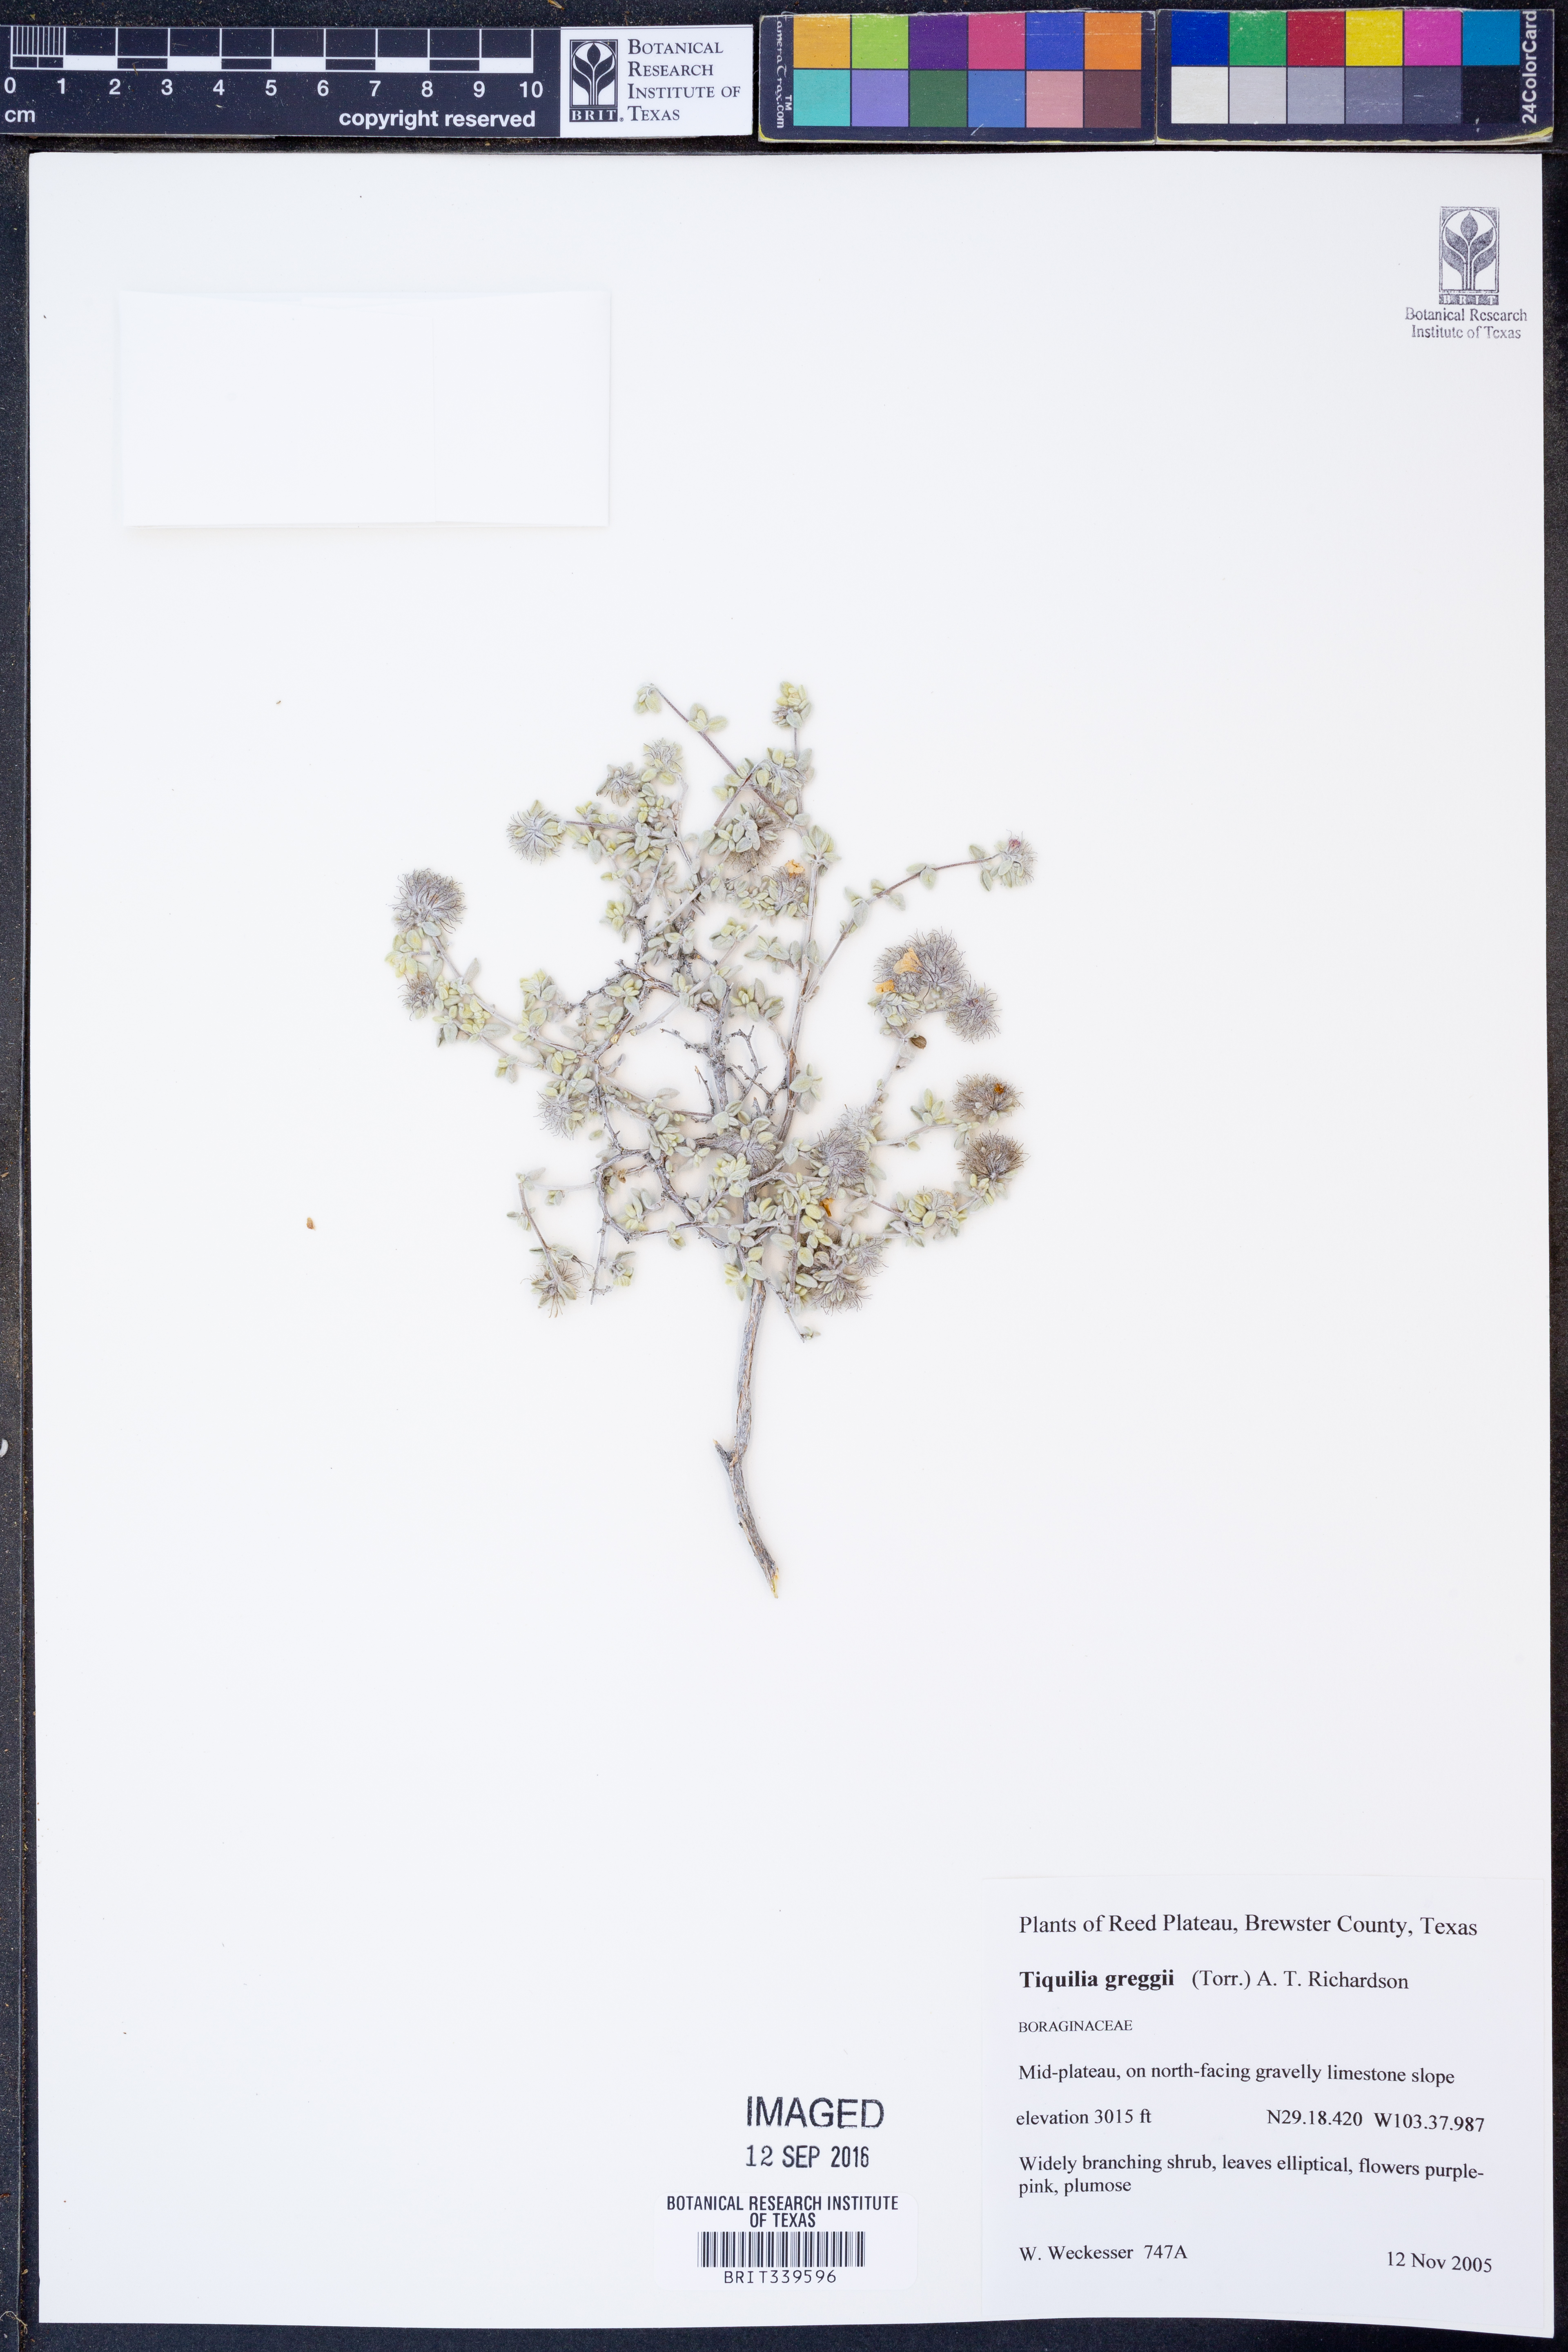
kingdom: Plantae
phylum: Tracheophyta
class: Magnoliopsida
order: Boraginales
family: Ehretiaceae
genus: Tiquilia
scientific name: Tiquilia greggii
